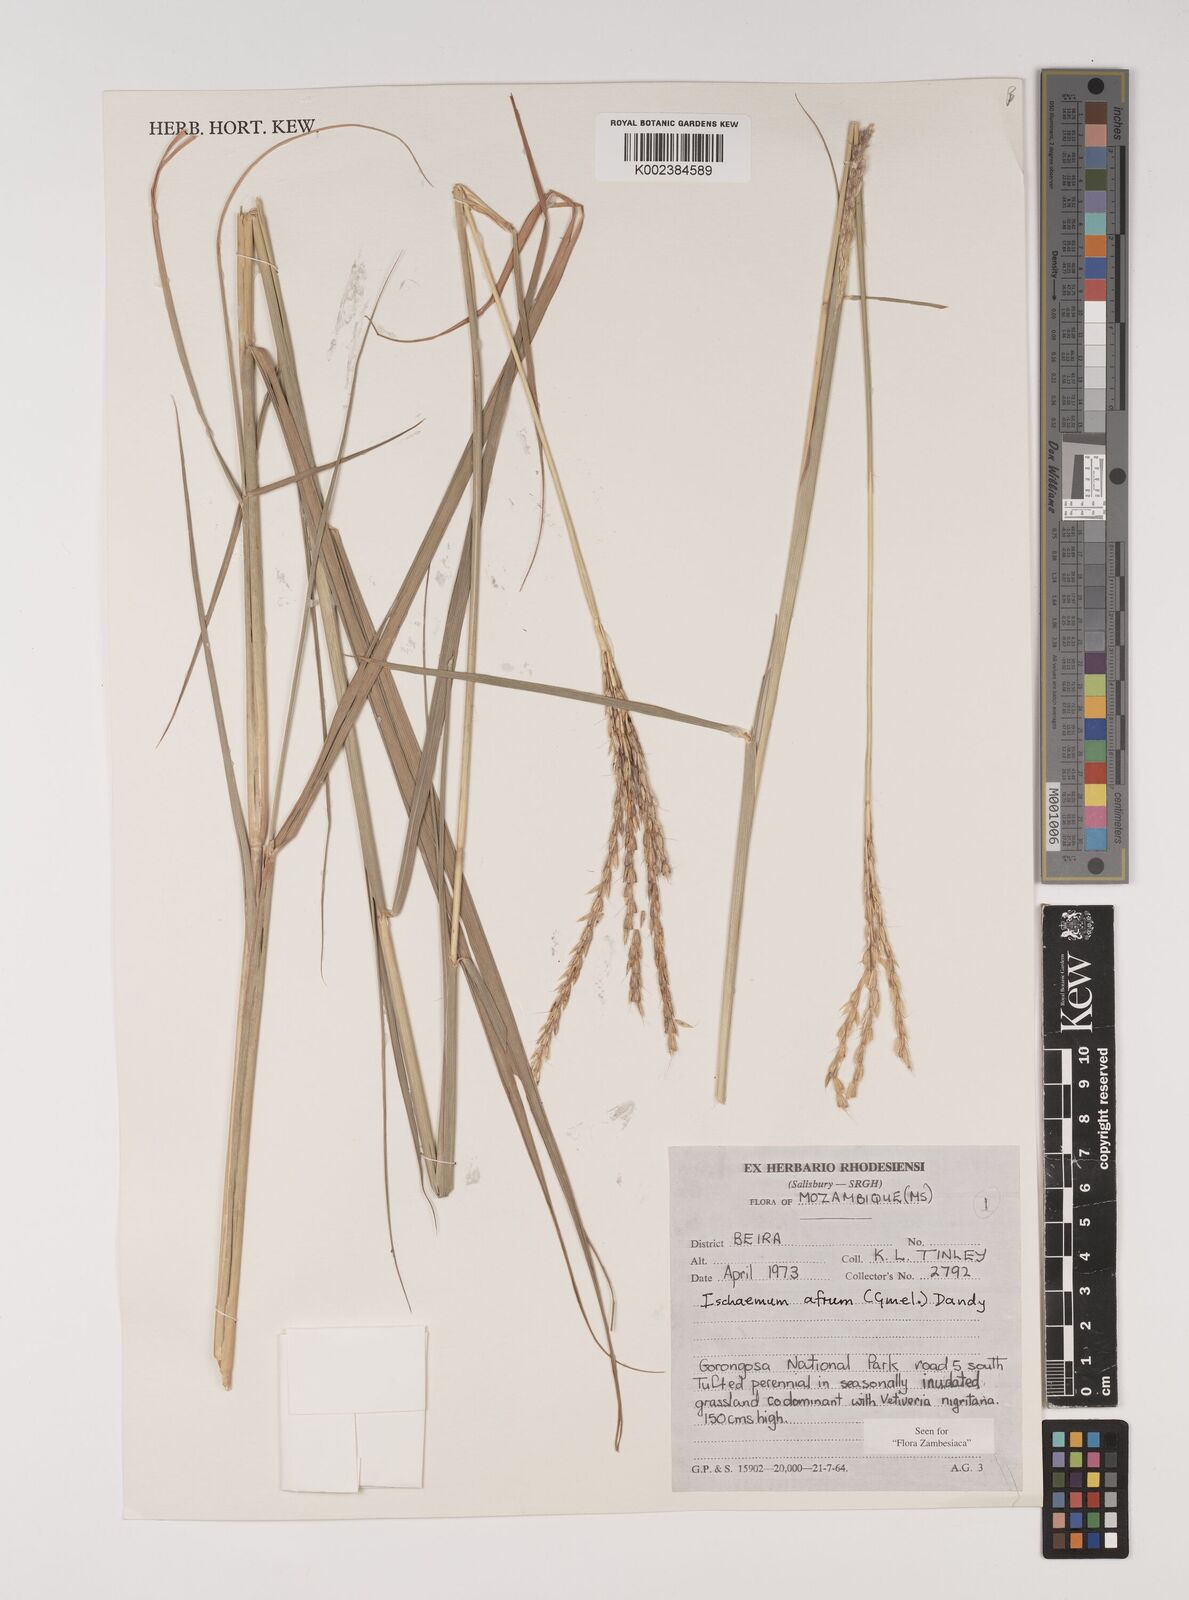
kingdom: Plantae
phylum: Tracheophyta
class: Liliopsida
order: Poales
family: Poaceae
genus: Ischaemum
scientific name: Ischaemum afrum
